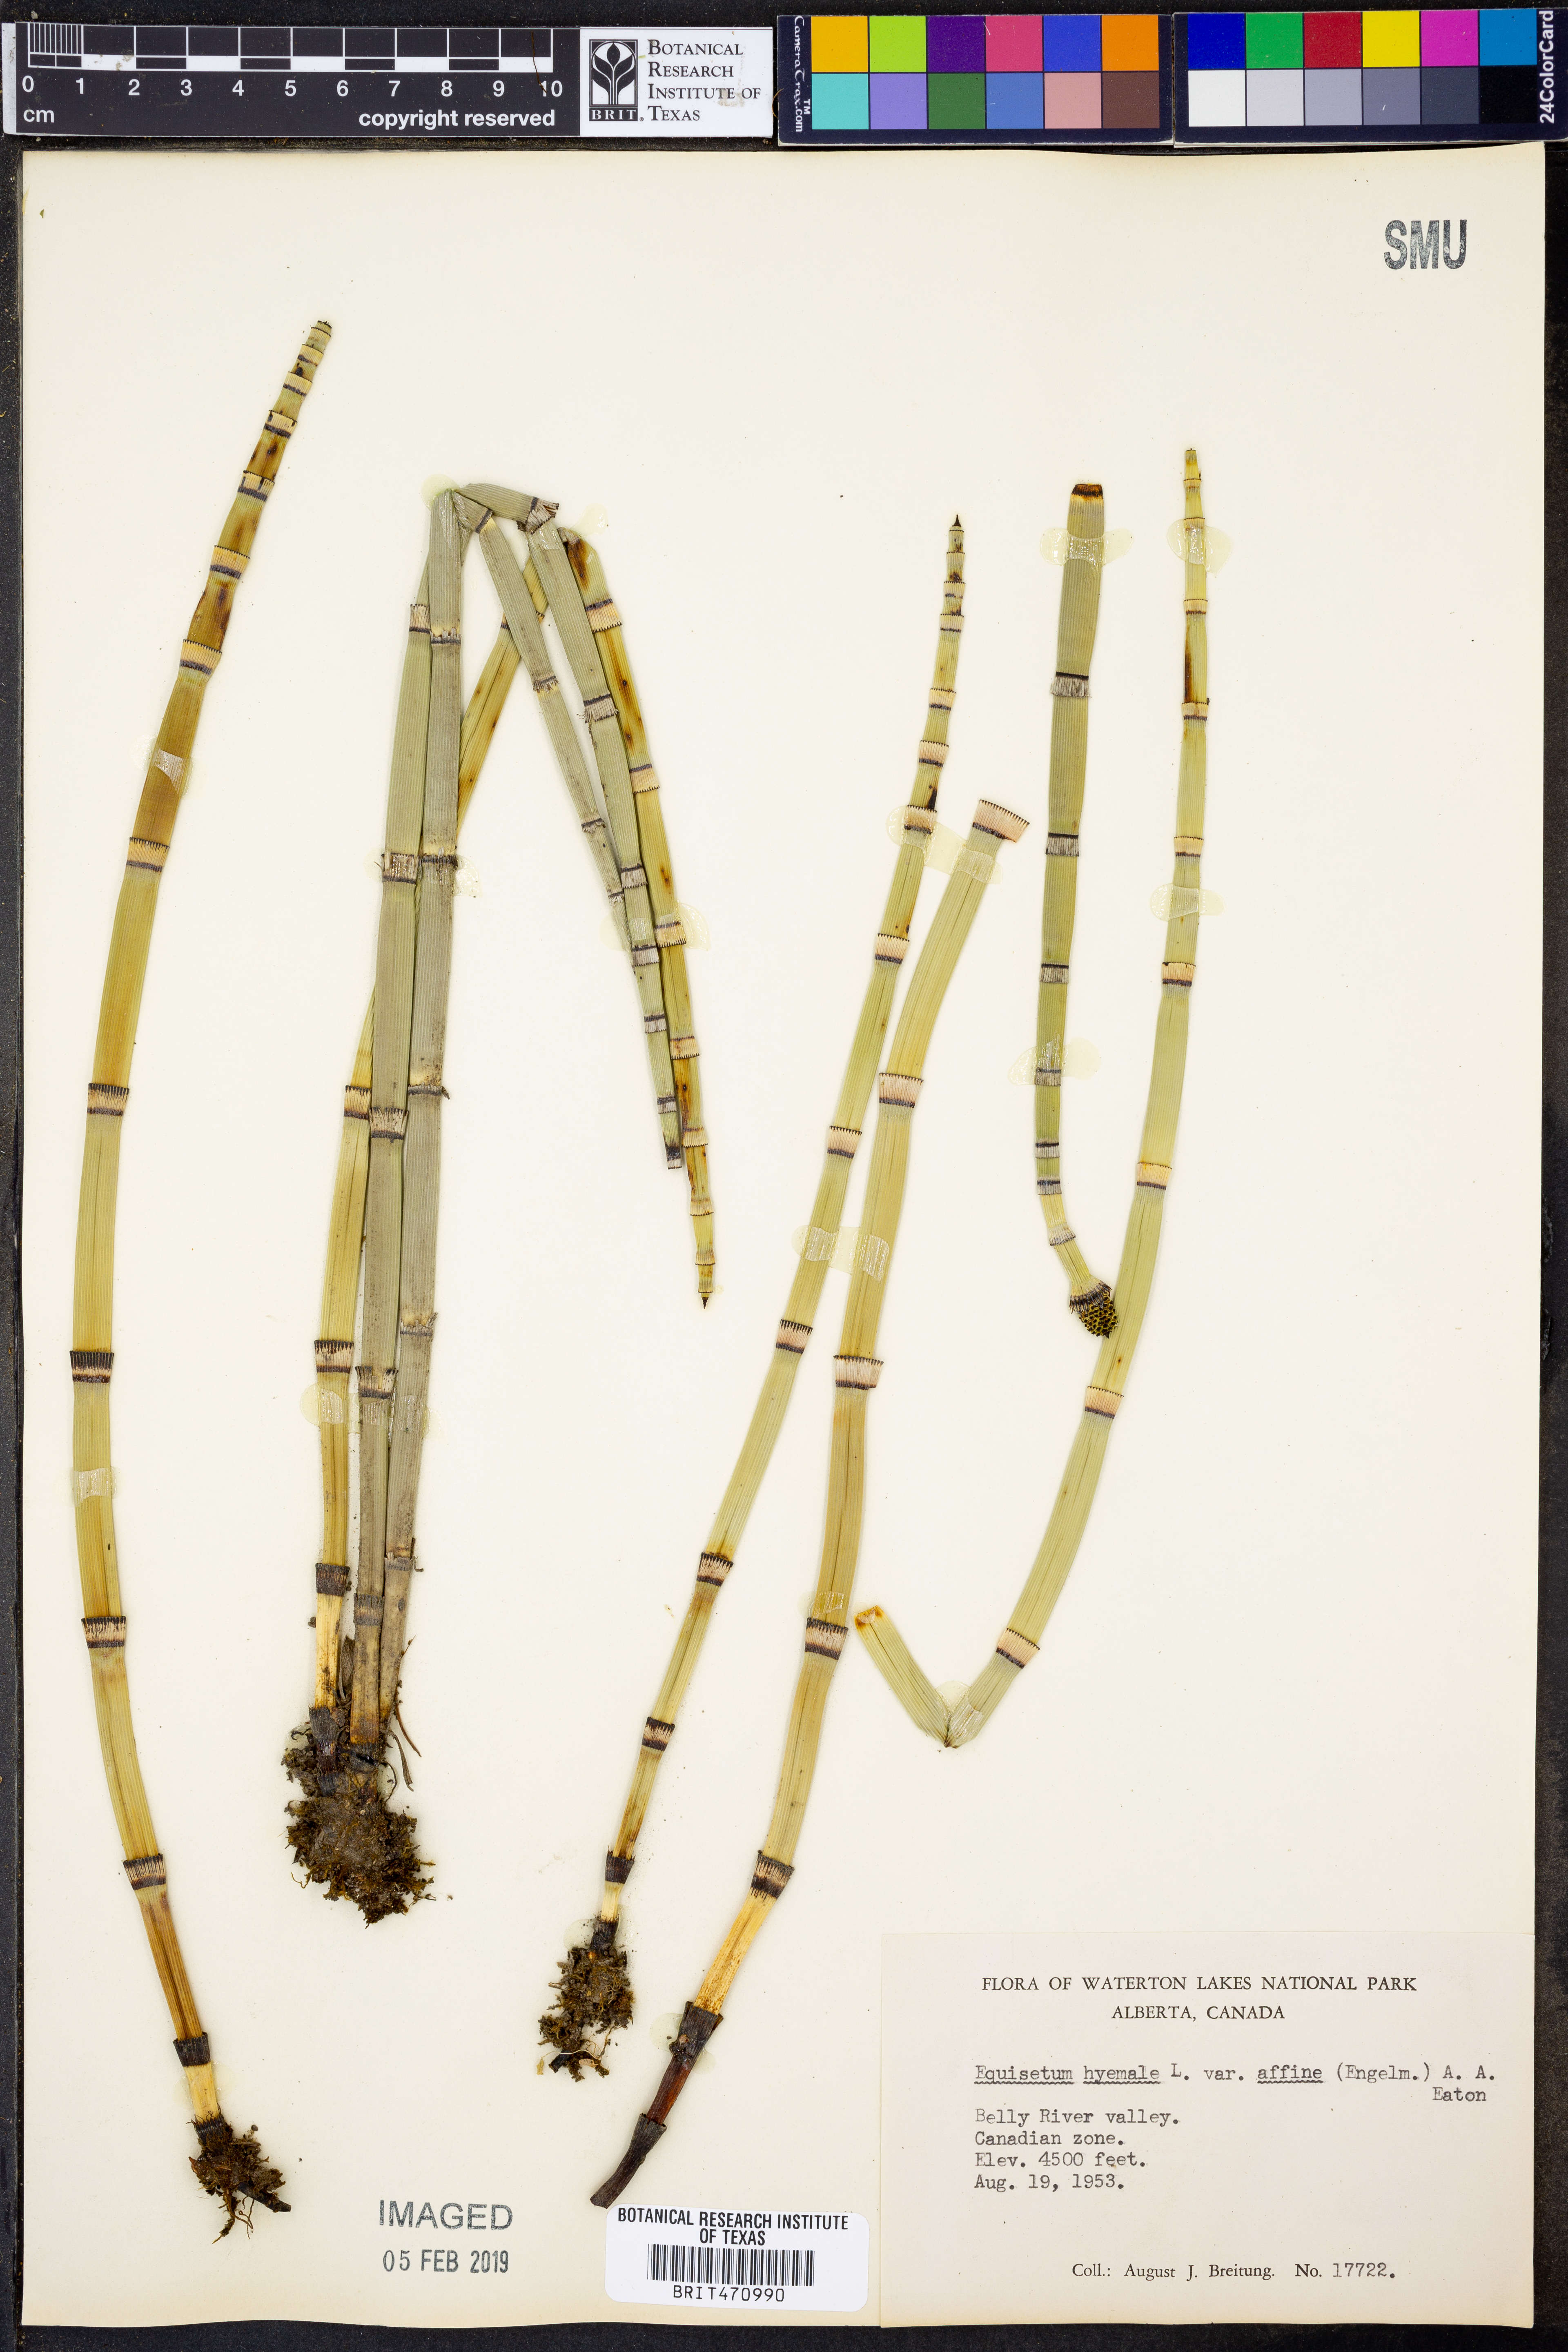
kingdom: Plantae
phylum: Tracheophyta
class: Polypodiopsida
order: Equisetales
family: Equisetaceae
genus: Equisetum
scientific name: Equisetum praealtum
